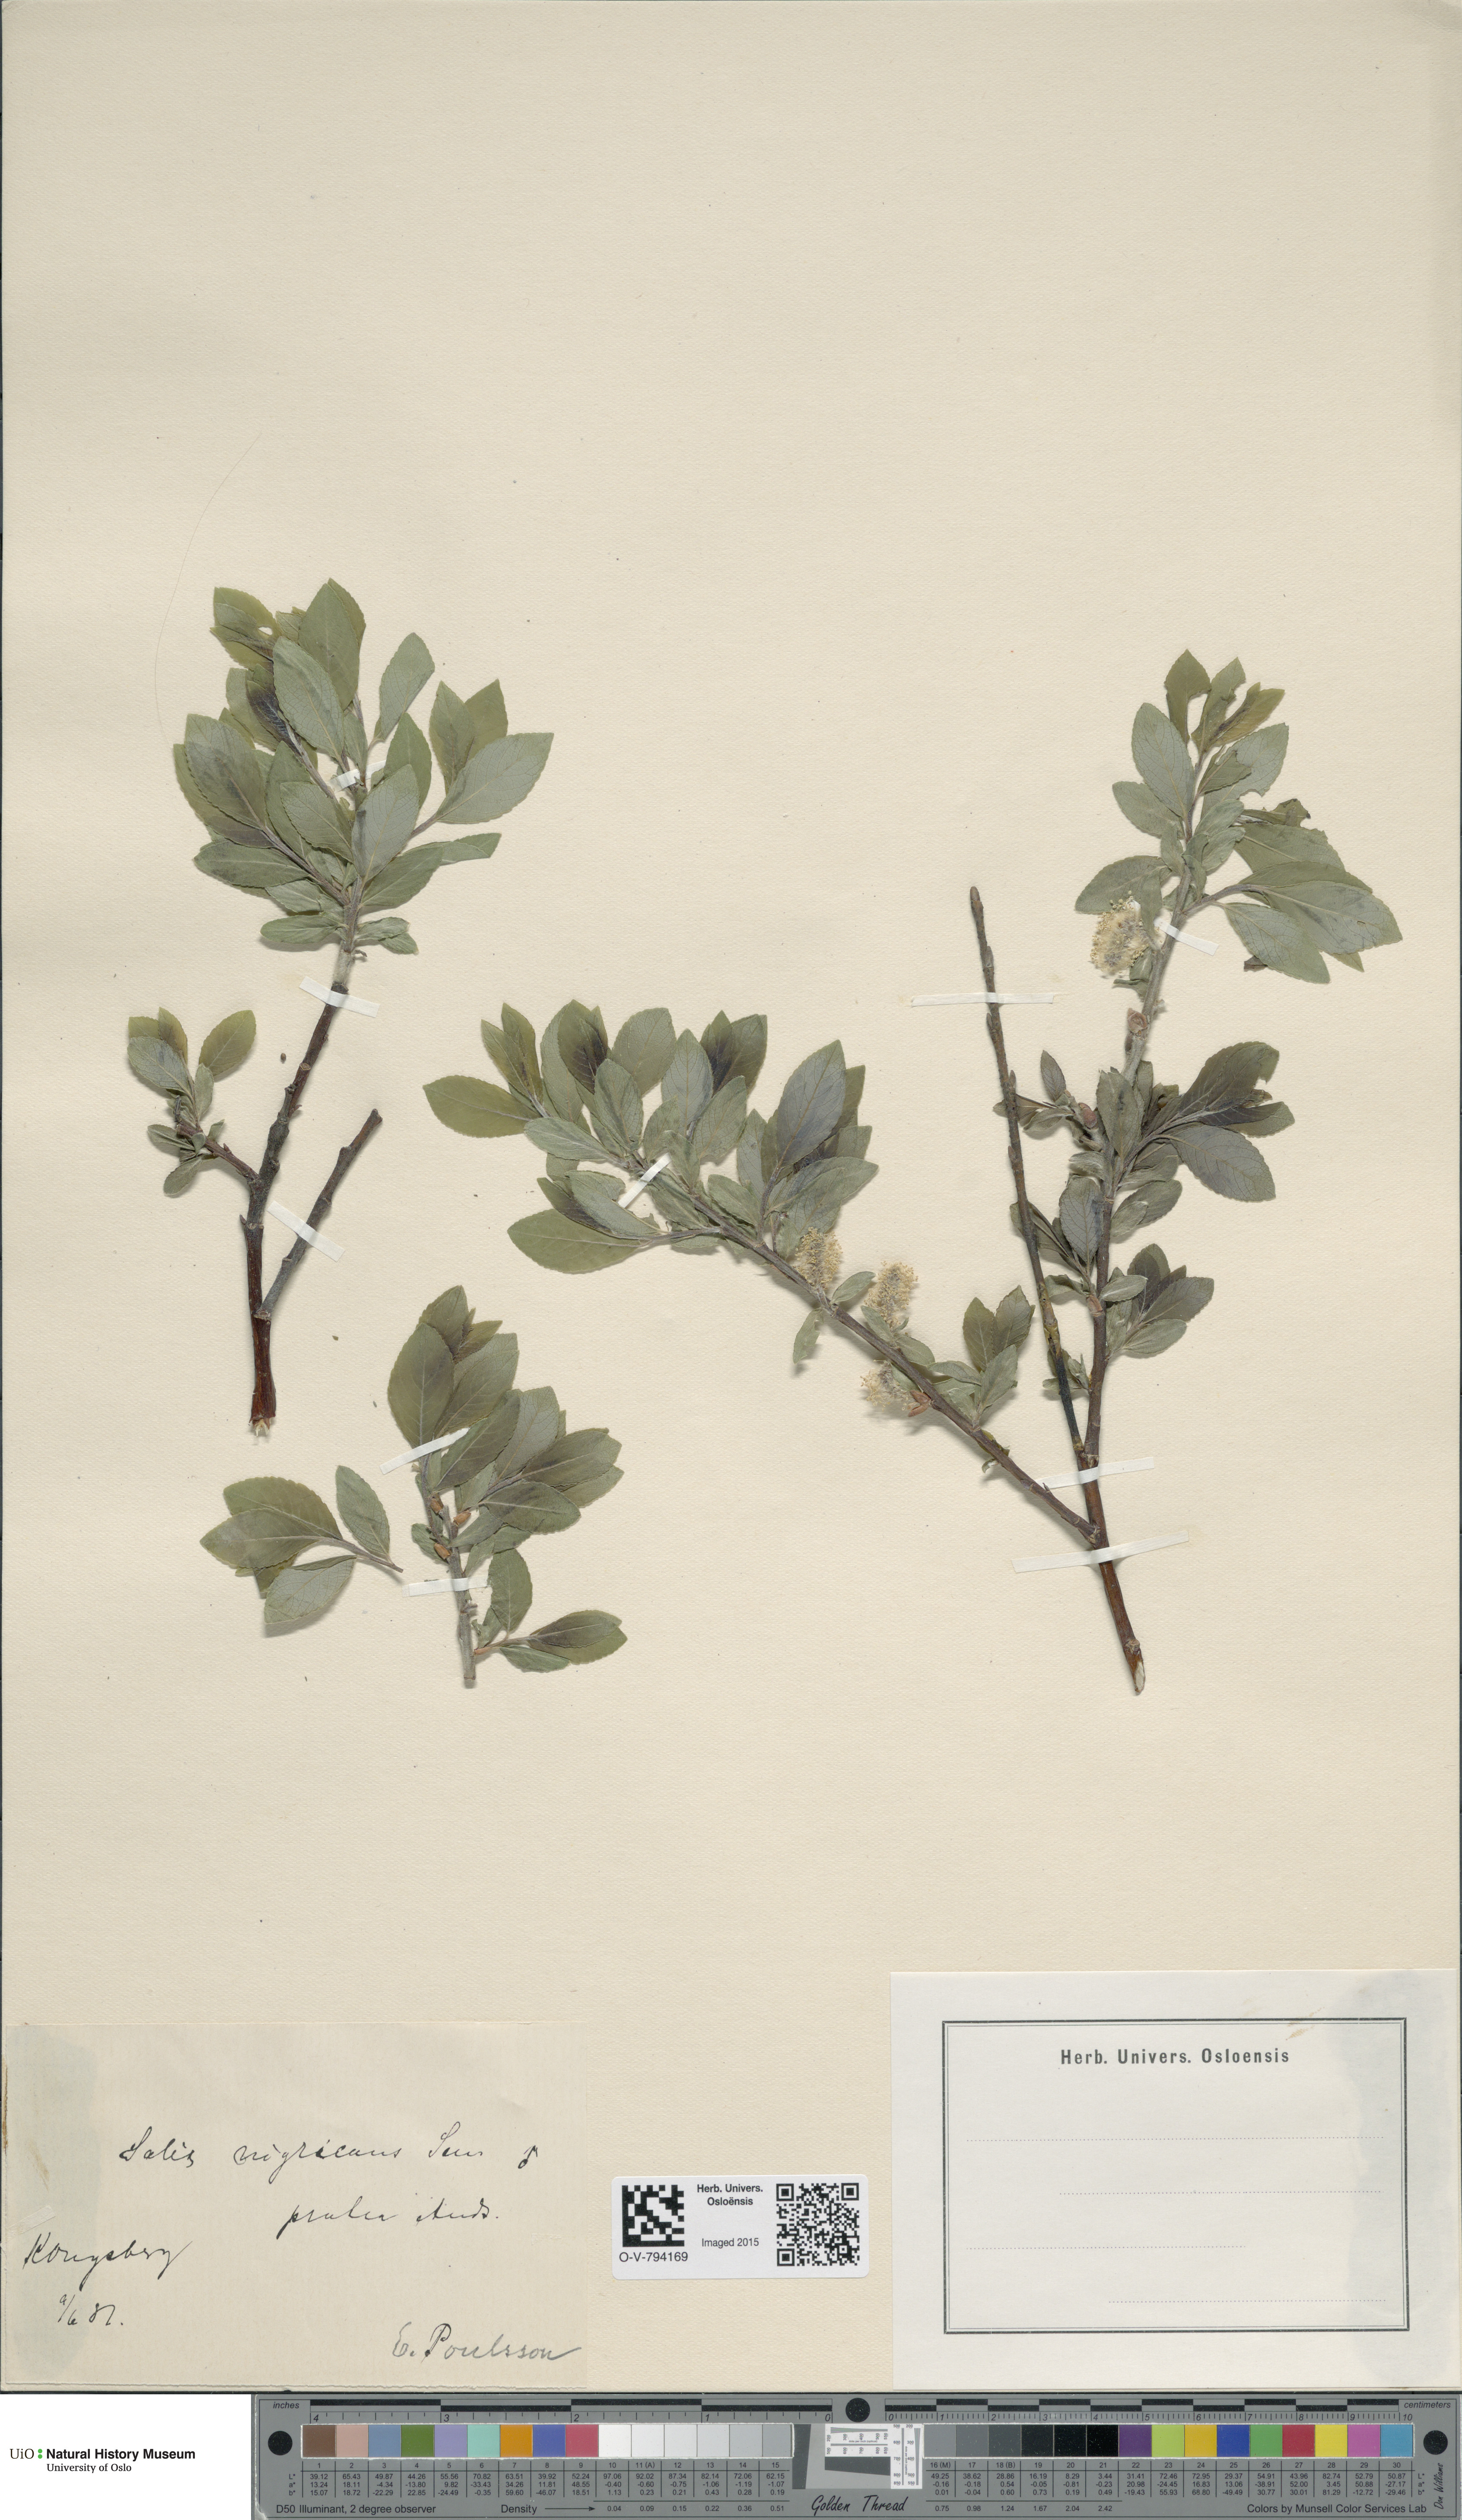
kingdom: Plantae
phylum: Tracheophyta
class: Magnoliopsida
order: Malpighiales
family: Salicaceae
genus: Salix
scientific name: Salix myrsinifolia
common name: Dark-leaved willow
